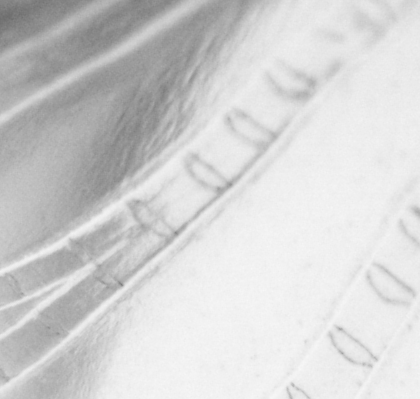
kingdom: Animalia
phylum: Chordata
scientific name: Chordata
